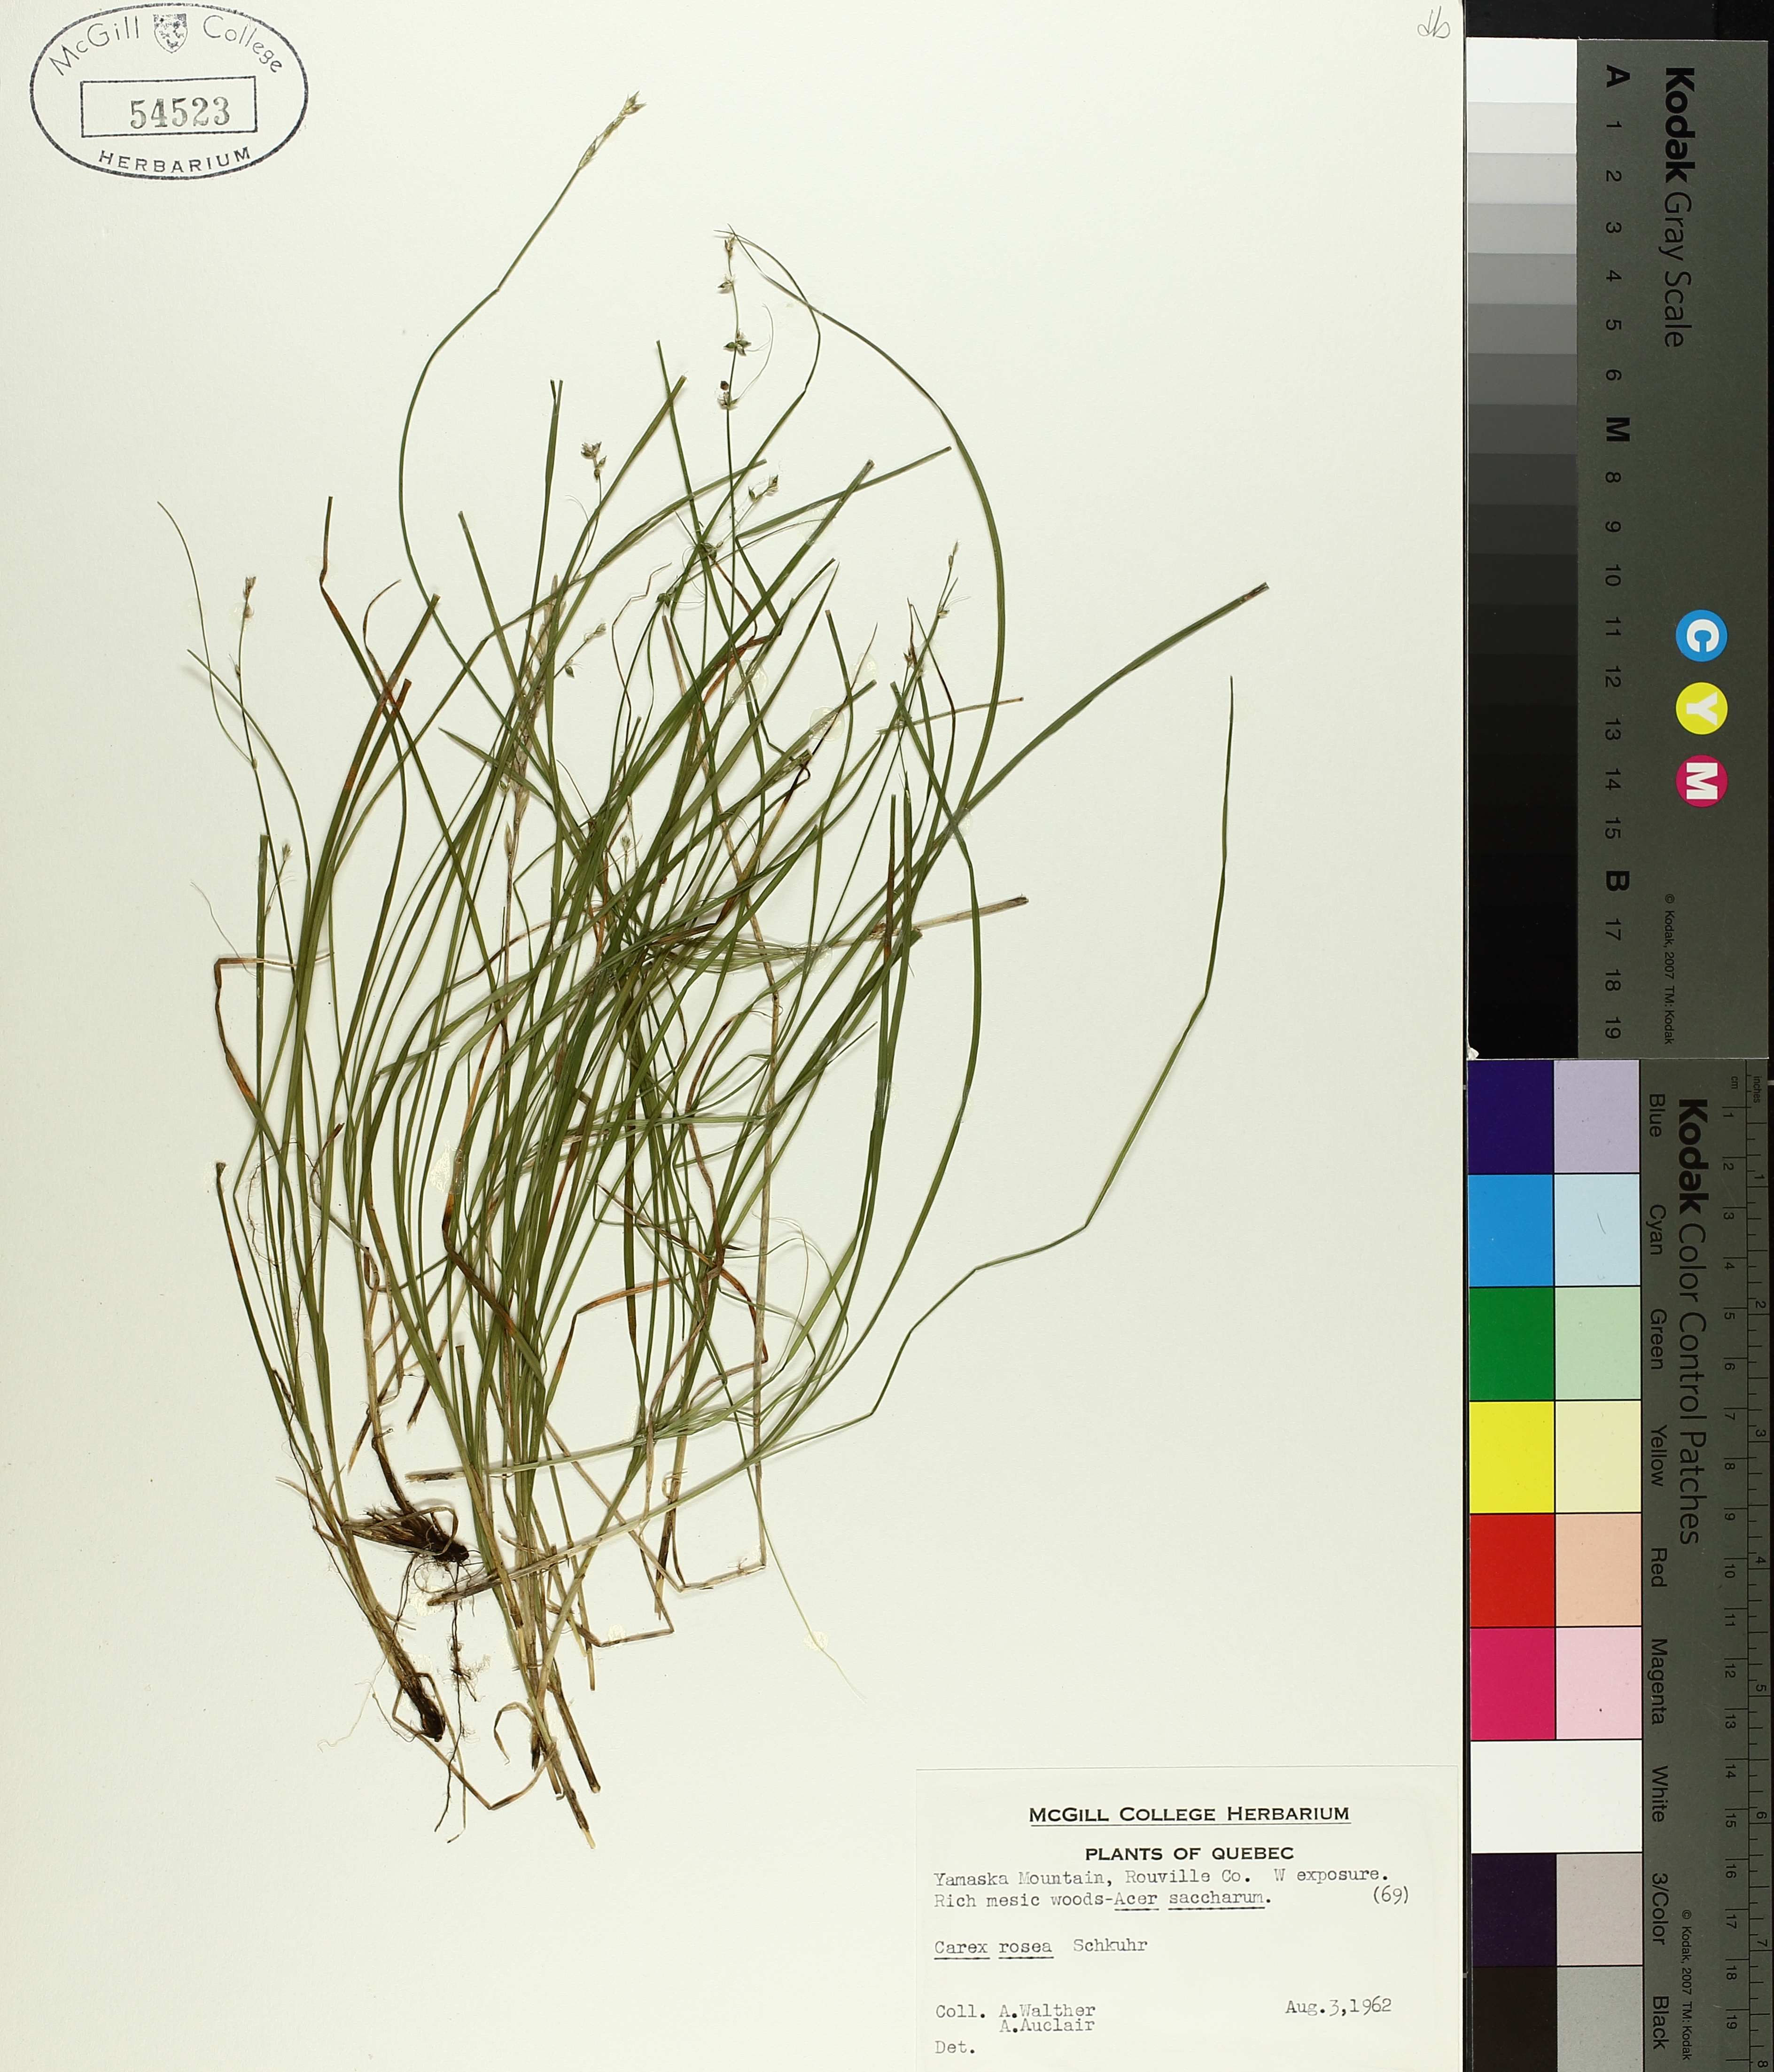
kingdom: Plantae
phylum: Tracheophyta
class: Liliopsida
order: Poales
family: Cyperaceae
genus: Carex
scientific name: Carex rosea
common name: Curly-styled wood sedge
